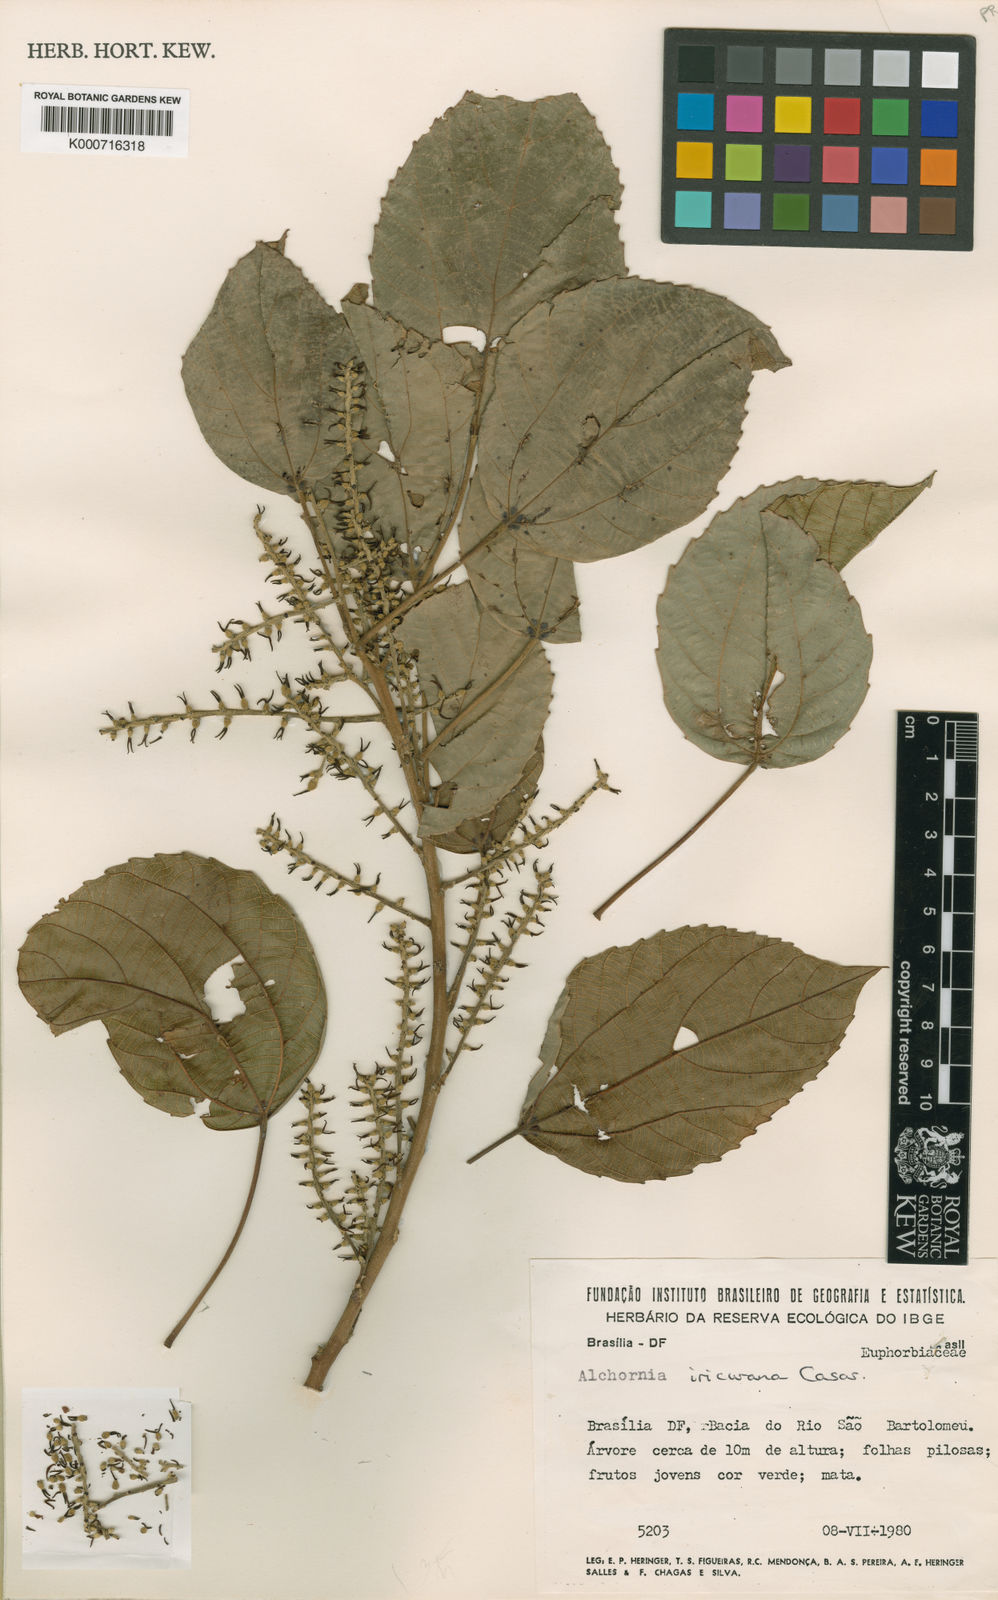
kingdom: Plantae
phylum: Tracheophyta
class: Magnoliopsida
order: Malpighiales
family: Euphorbiaceae
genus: Alchornea
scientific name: Alchornea glandulosa
